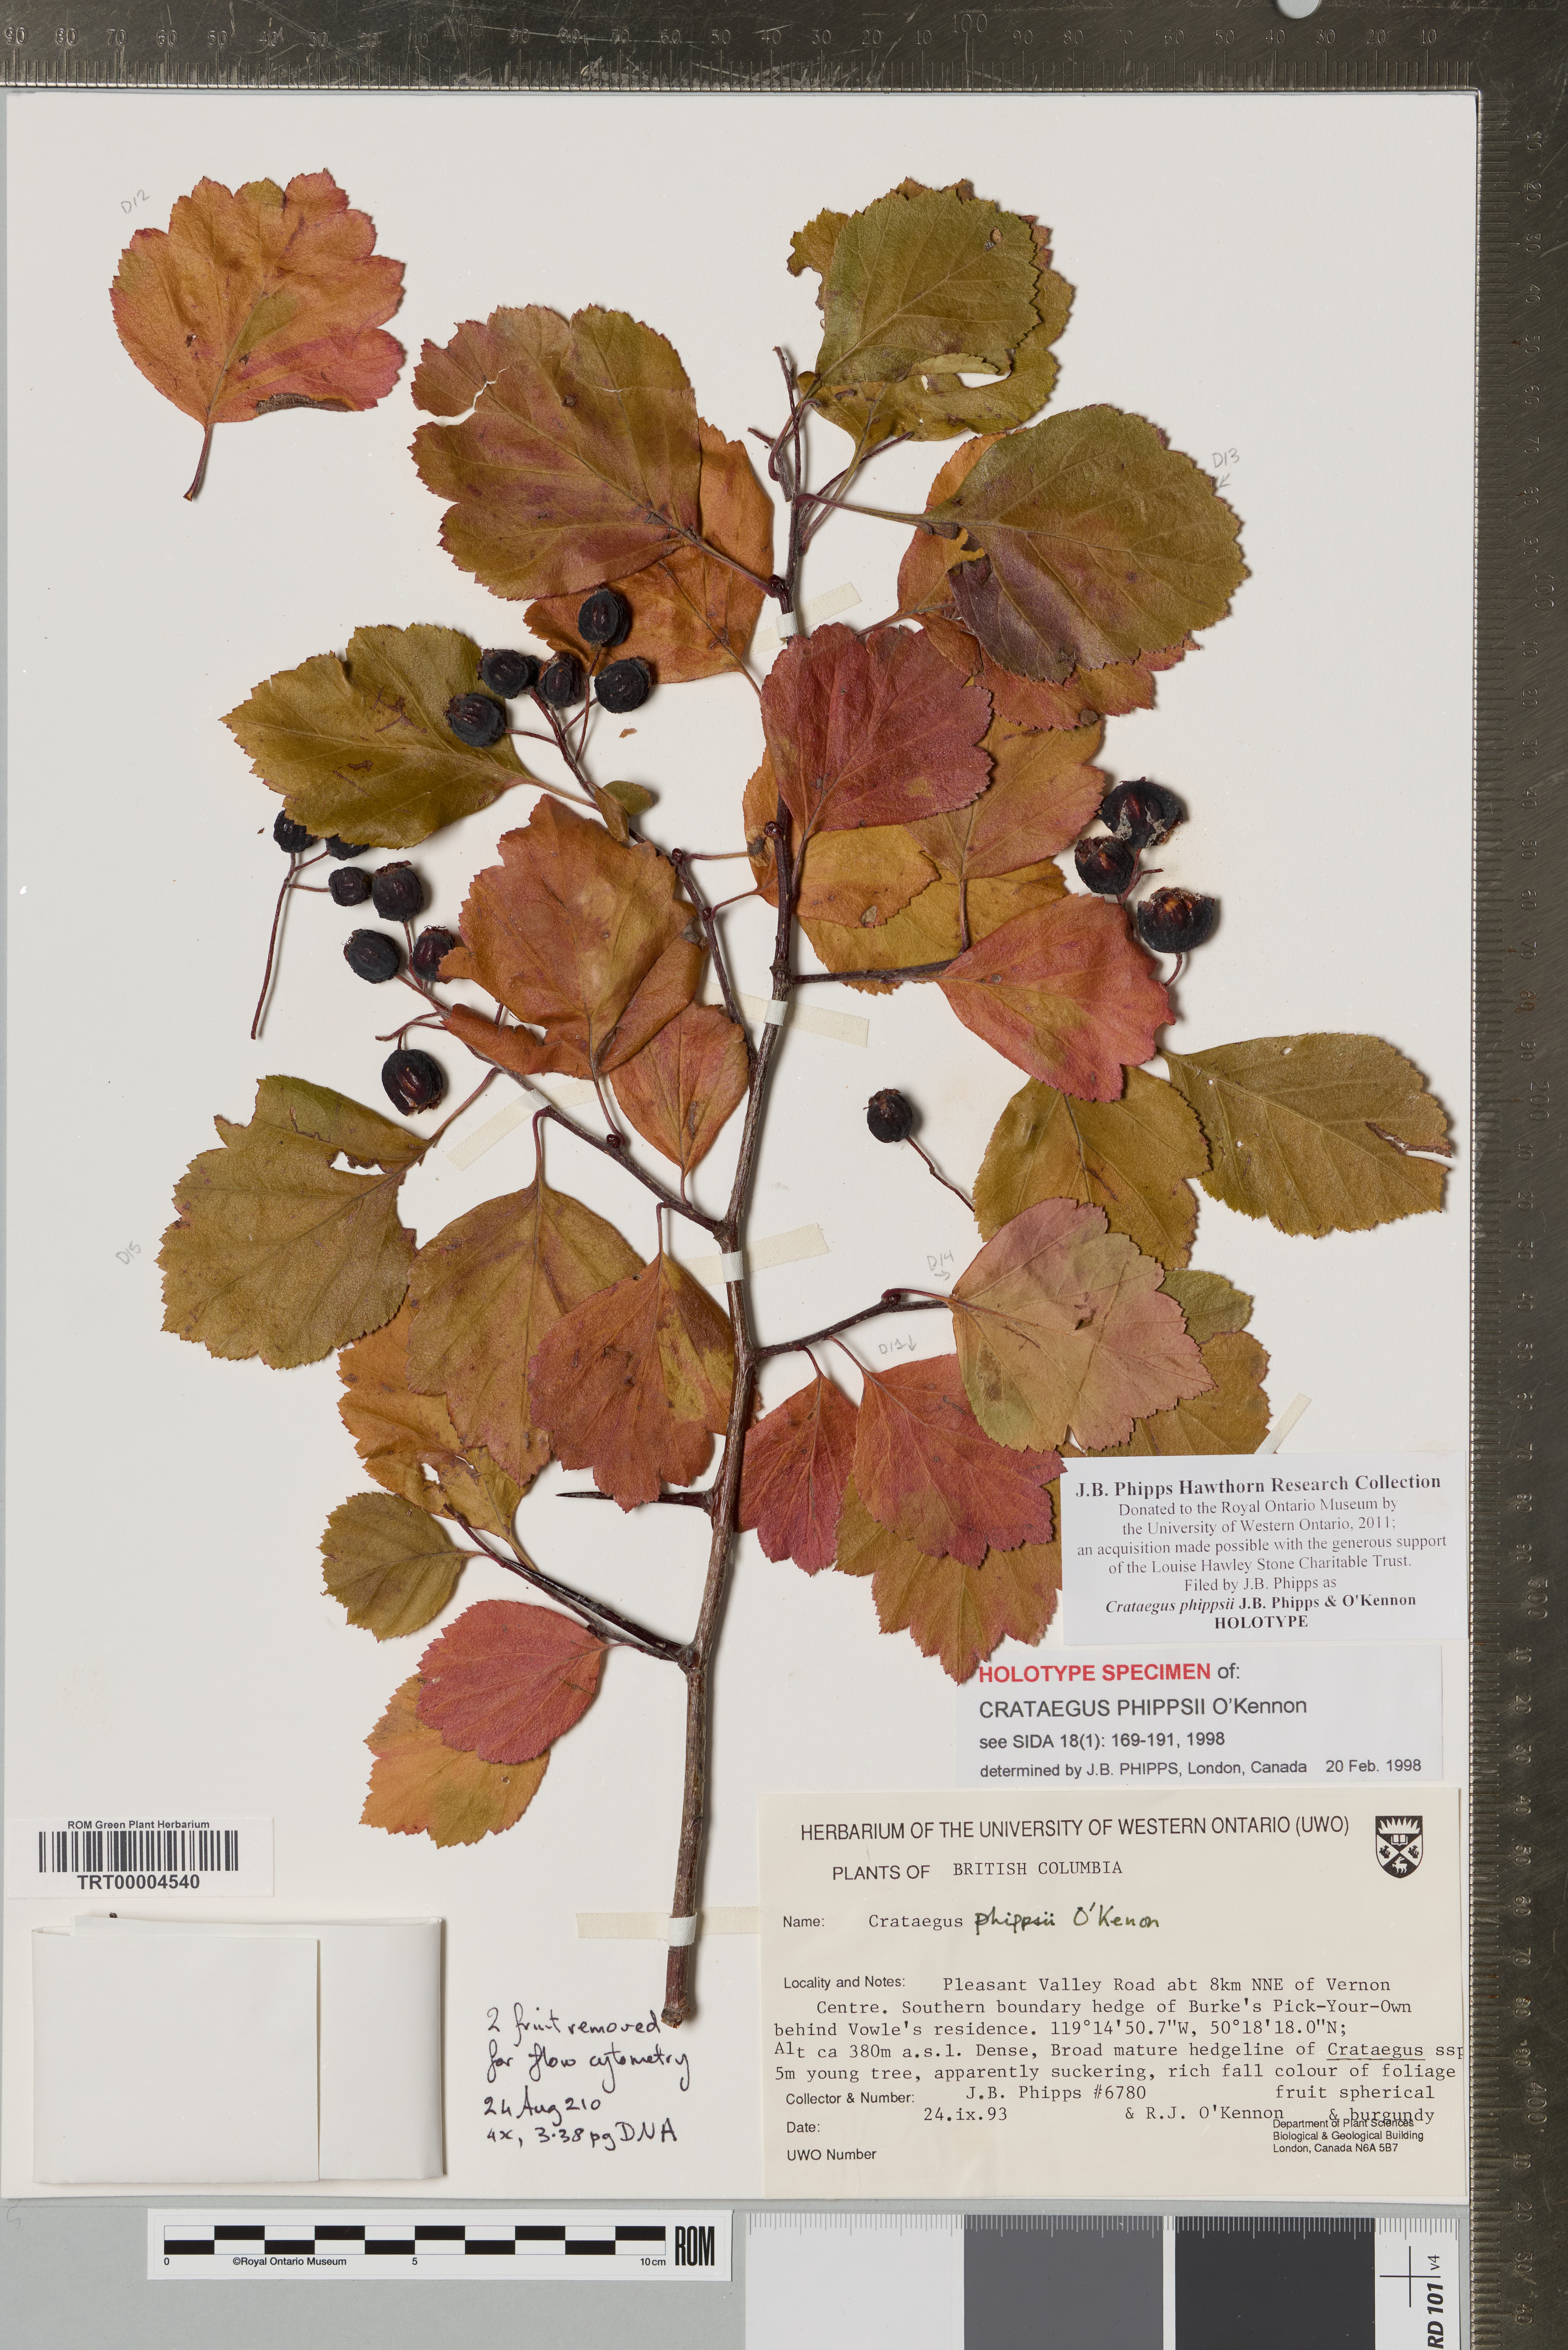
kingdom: Plantae
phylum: Tracheophyta
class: Magnoliopsida
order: Rosales
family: Rosaceae
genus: Crataegus
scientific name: Crataegus phippsii
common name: Phipps' hawthorn
